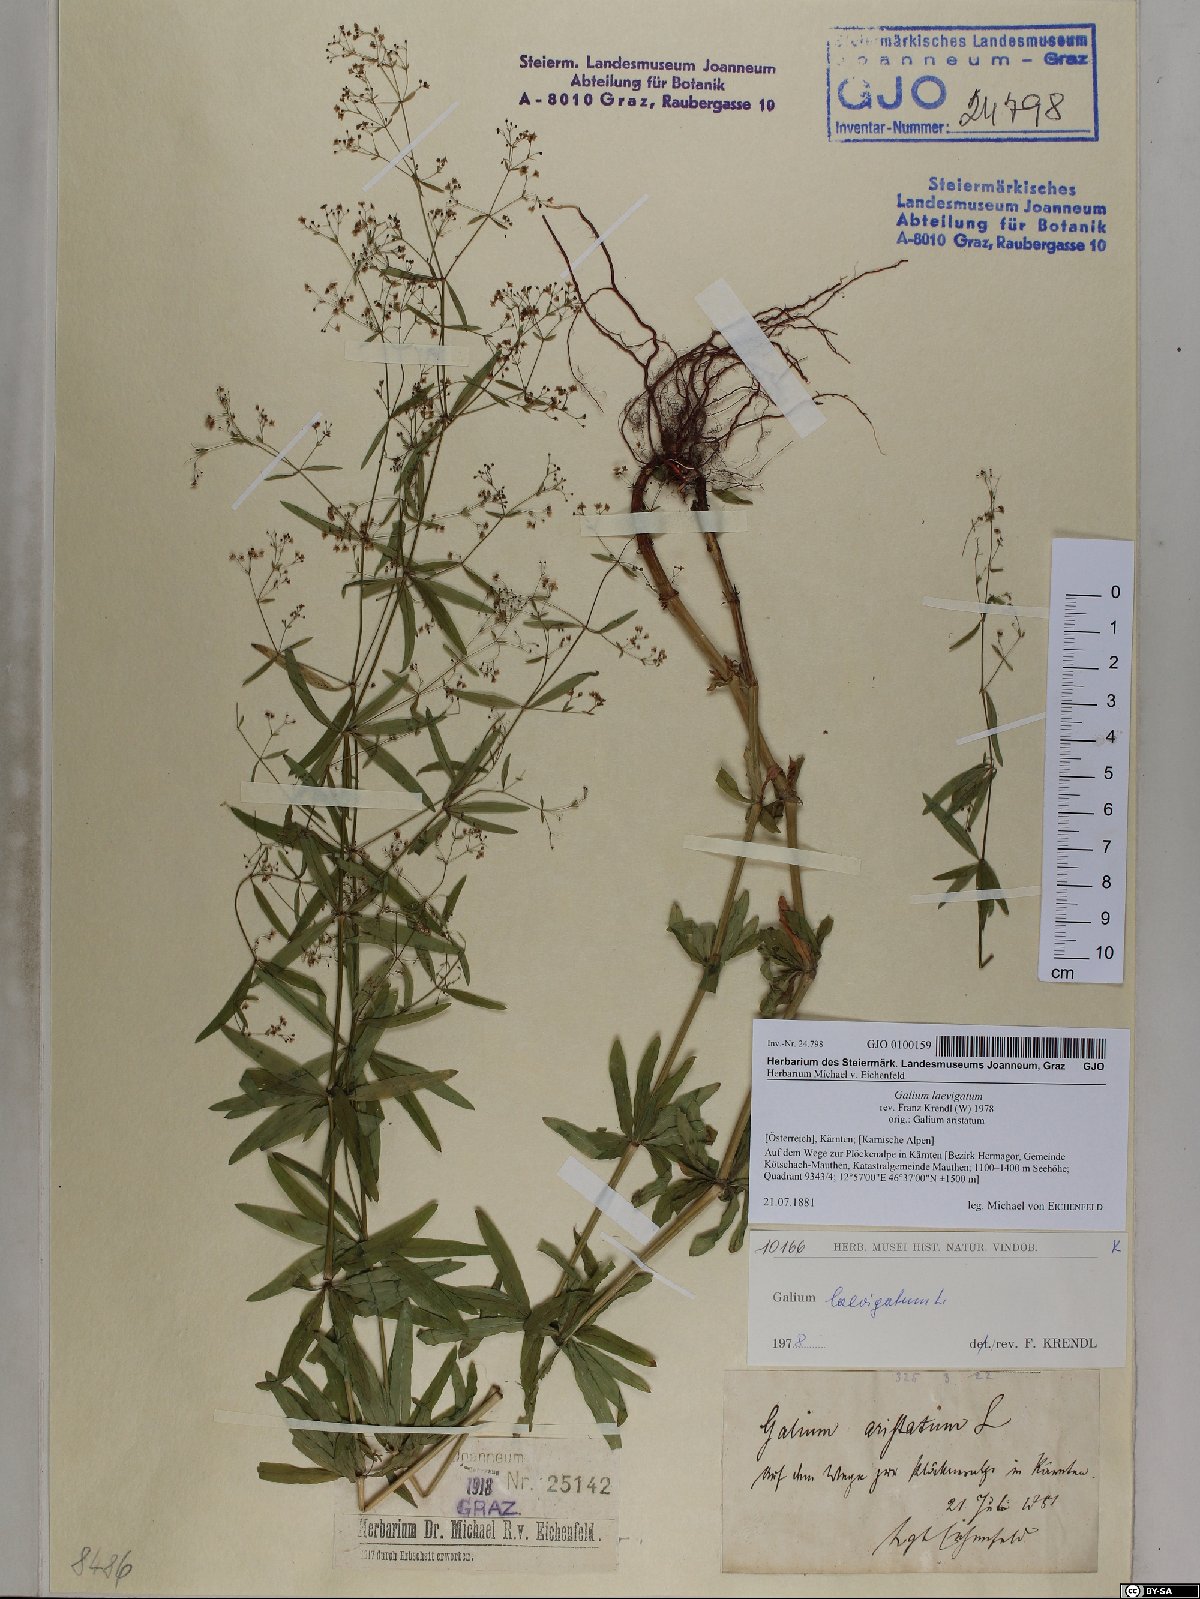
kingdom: Plantae
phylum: Tracheophyta
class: Magnoliopsida
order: Gentianales
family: Rubiaceae
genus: Galium
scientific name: Galium laevigatum
